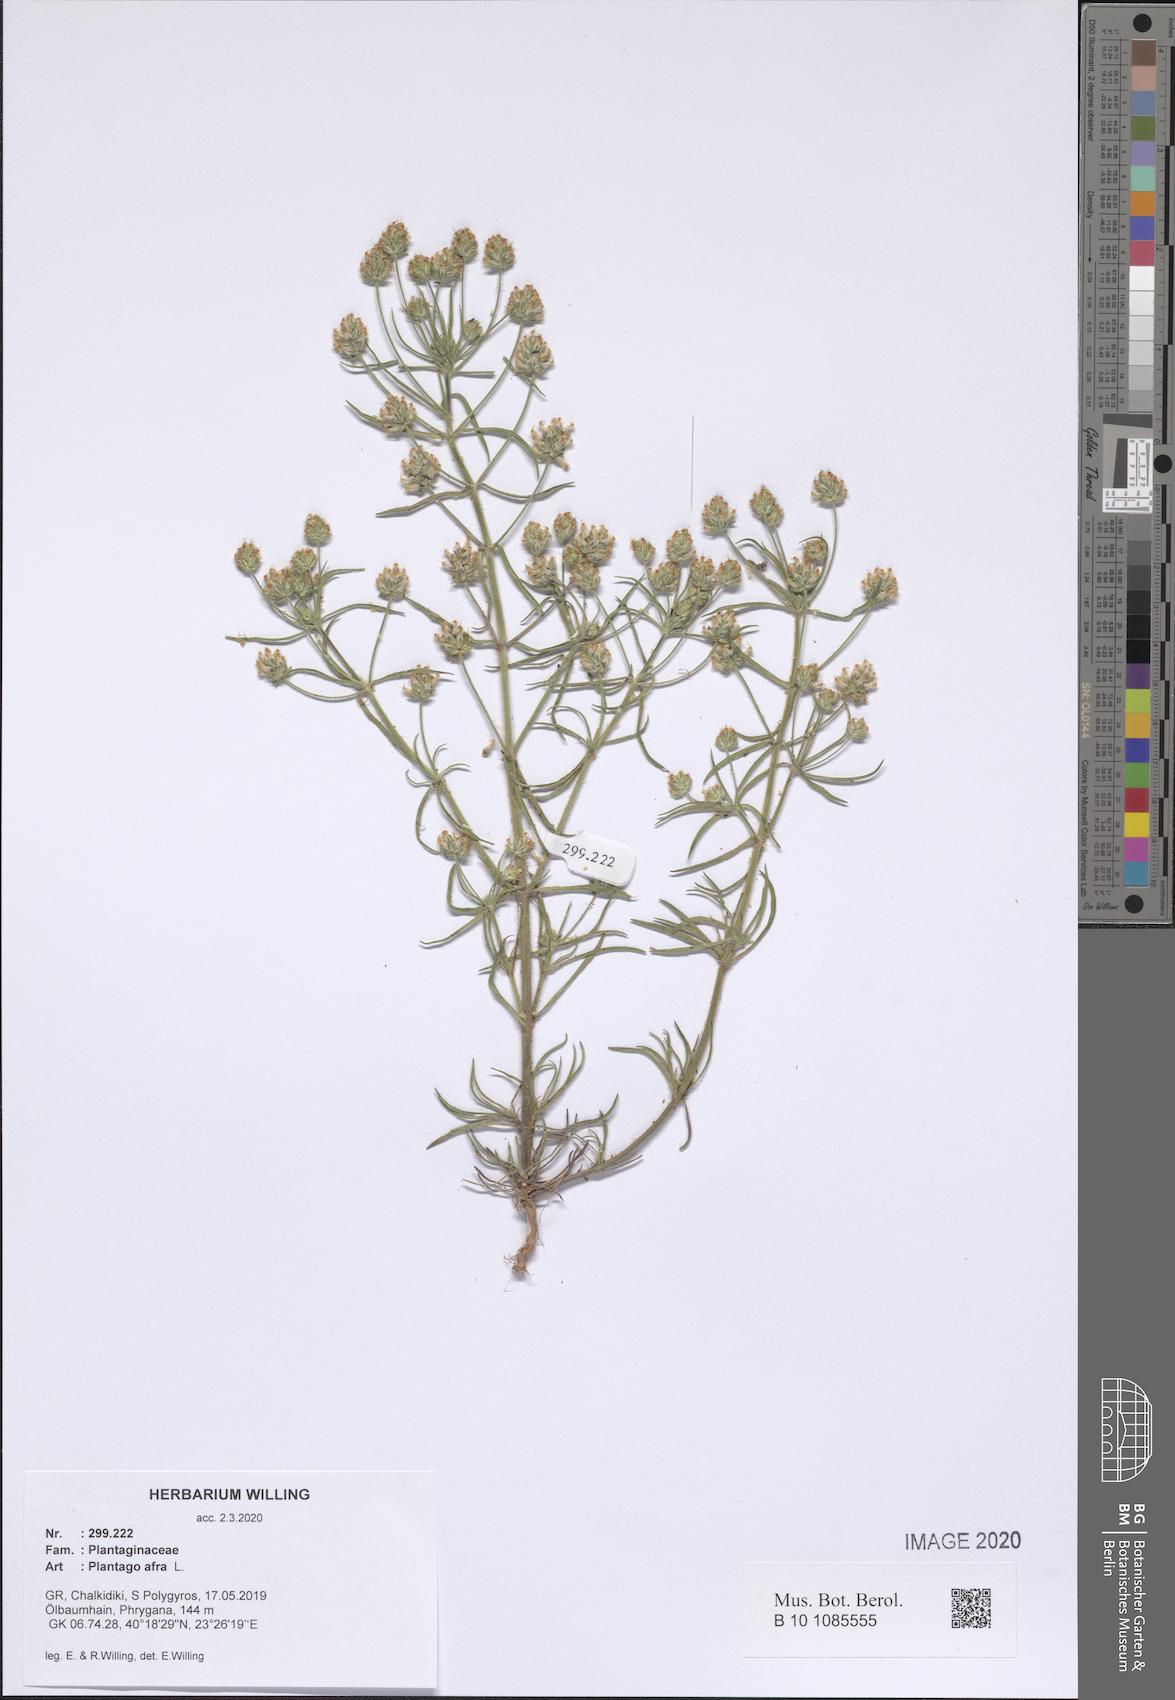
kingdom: Plantae
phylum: Tracheophyta
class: Magnoliopsida
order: Lamiales
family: Plantaginaceae
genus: Plantago
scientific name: Plantago afra
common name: Glandular plantain
